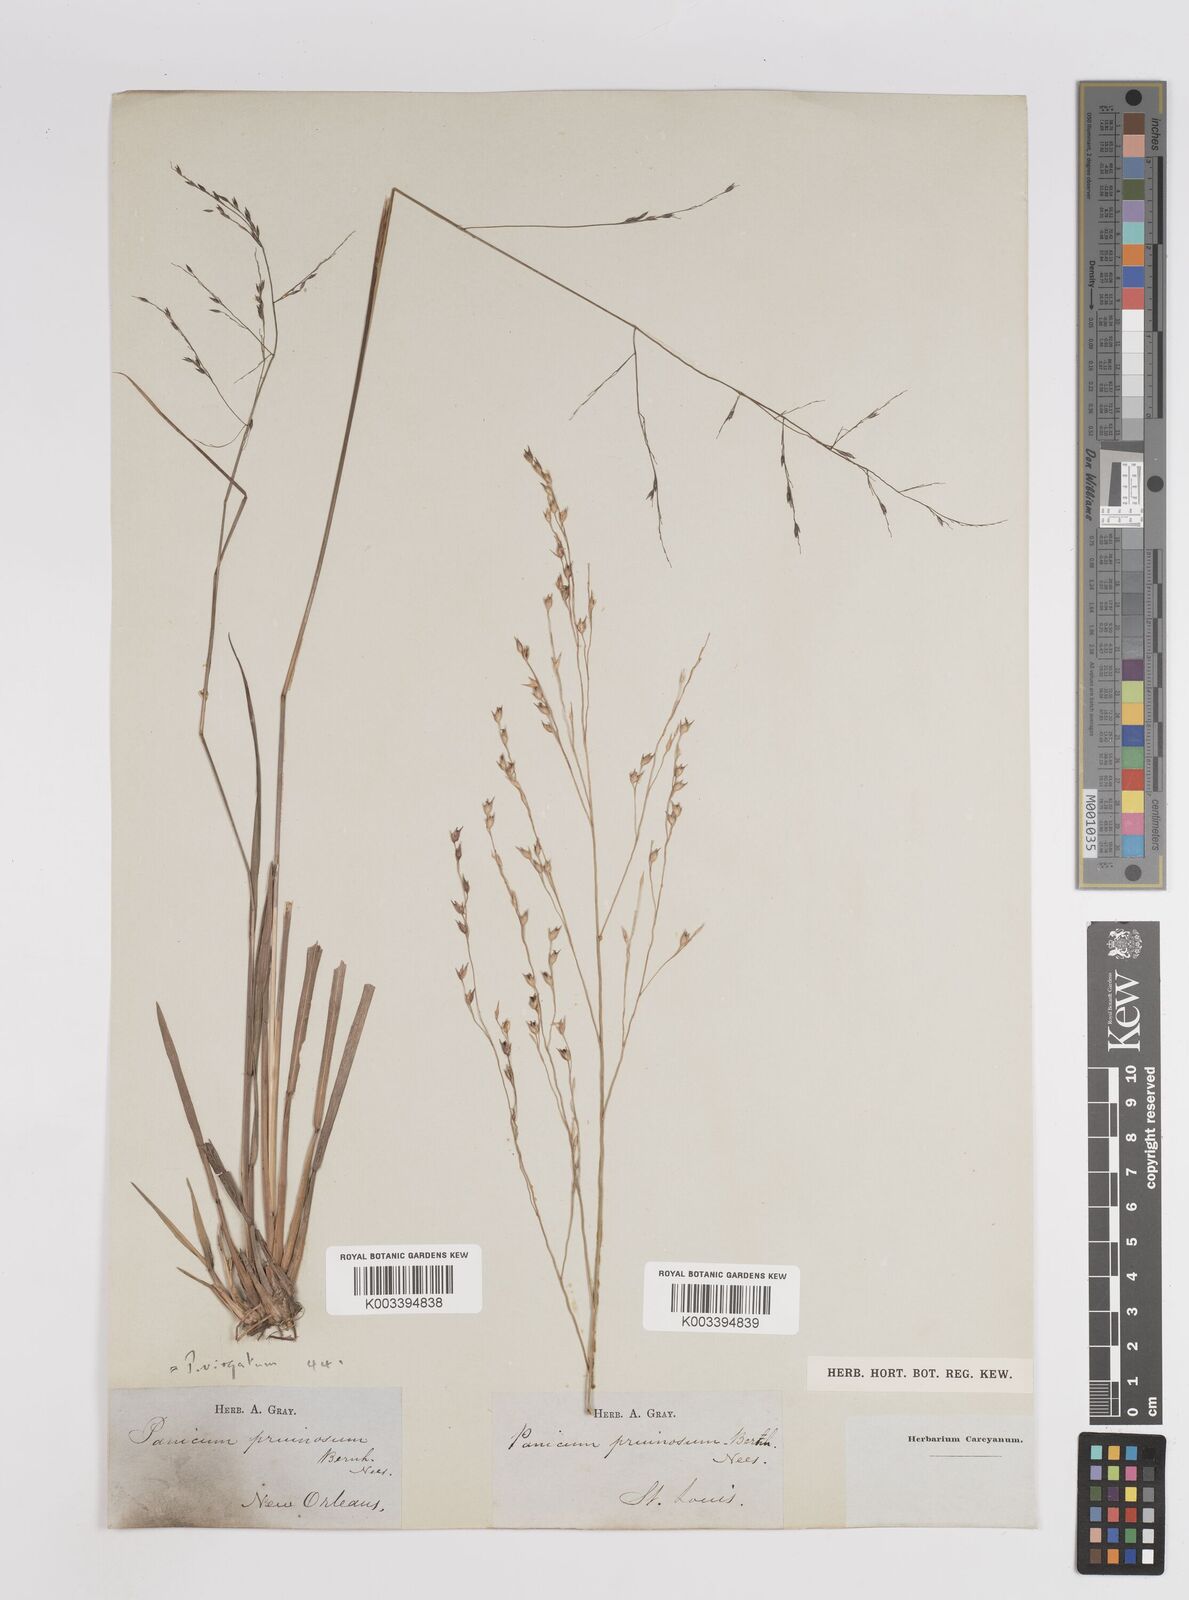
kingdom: Plantae
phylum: Tracheophyta
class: Liliopsida
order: Poales
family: Poaceae
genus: Panicum
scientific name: Panicum virgatum
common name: Switchgrass
